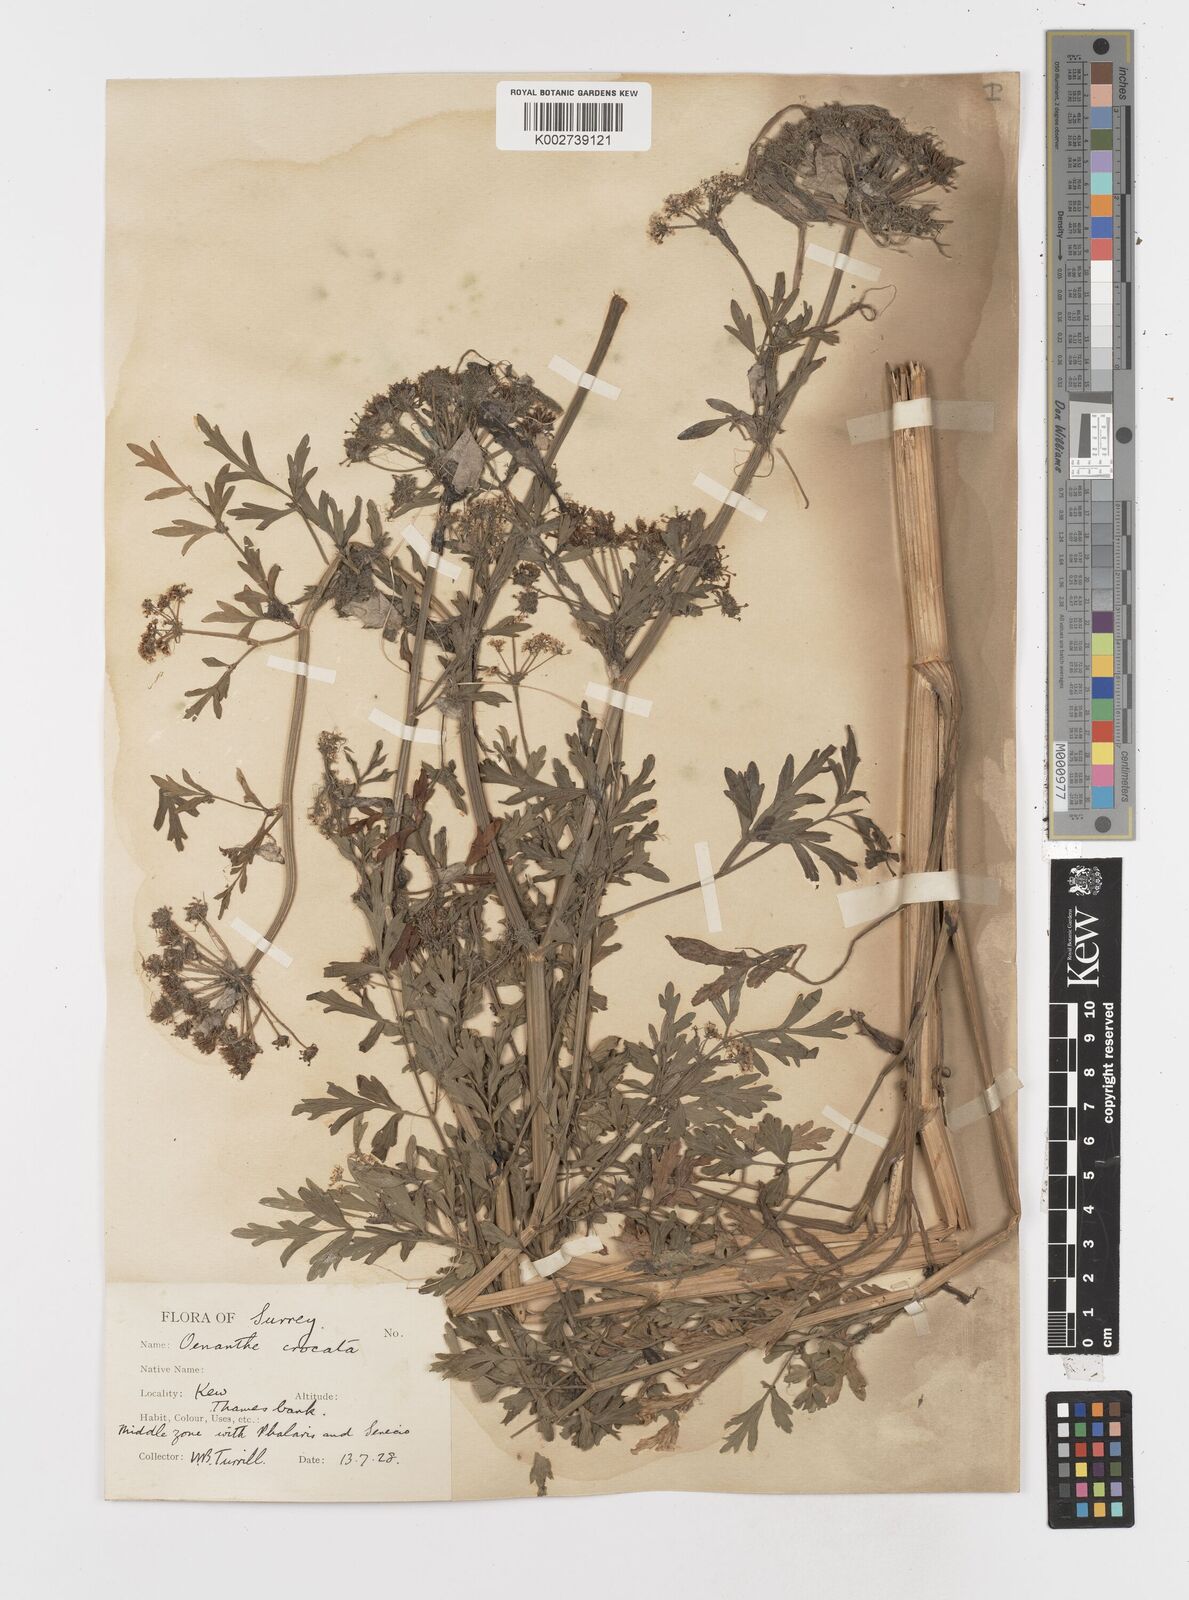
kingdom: Plantae
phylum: Tracheophyta
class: Magnoliopsida
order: Apiales
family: Apiaceae
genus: Oenanthe
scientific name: Oenanthe crocata
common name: Hemlock water-dropwort
